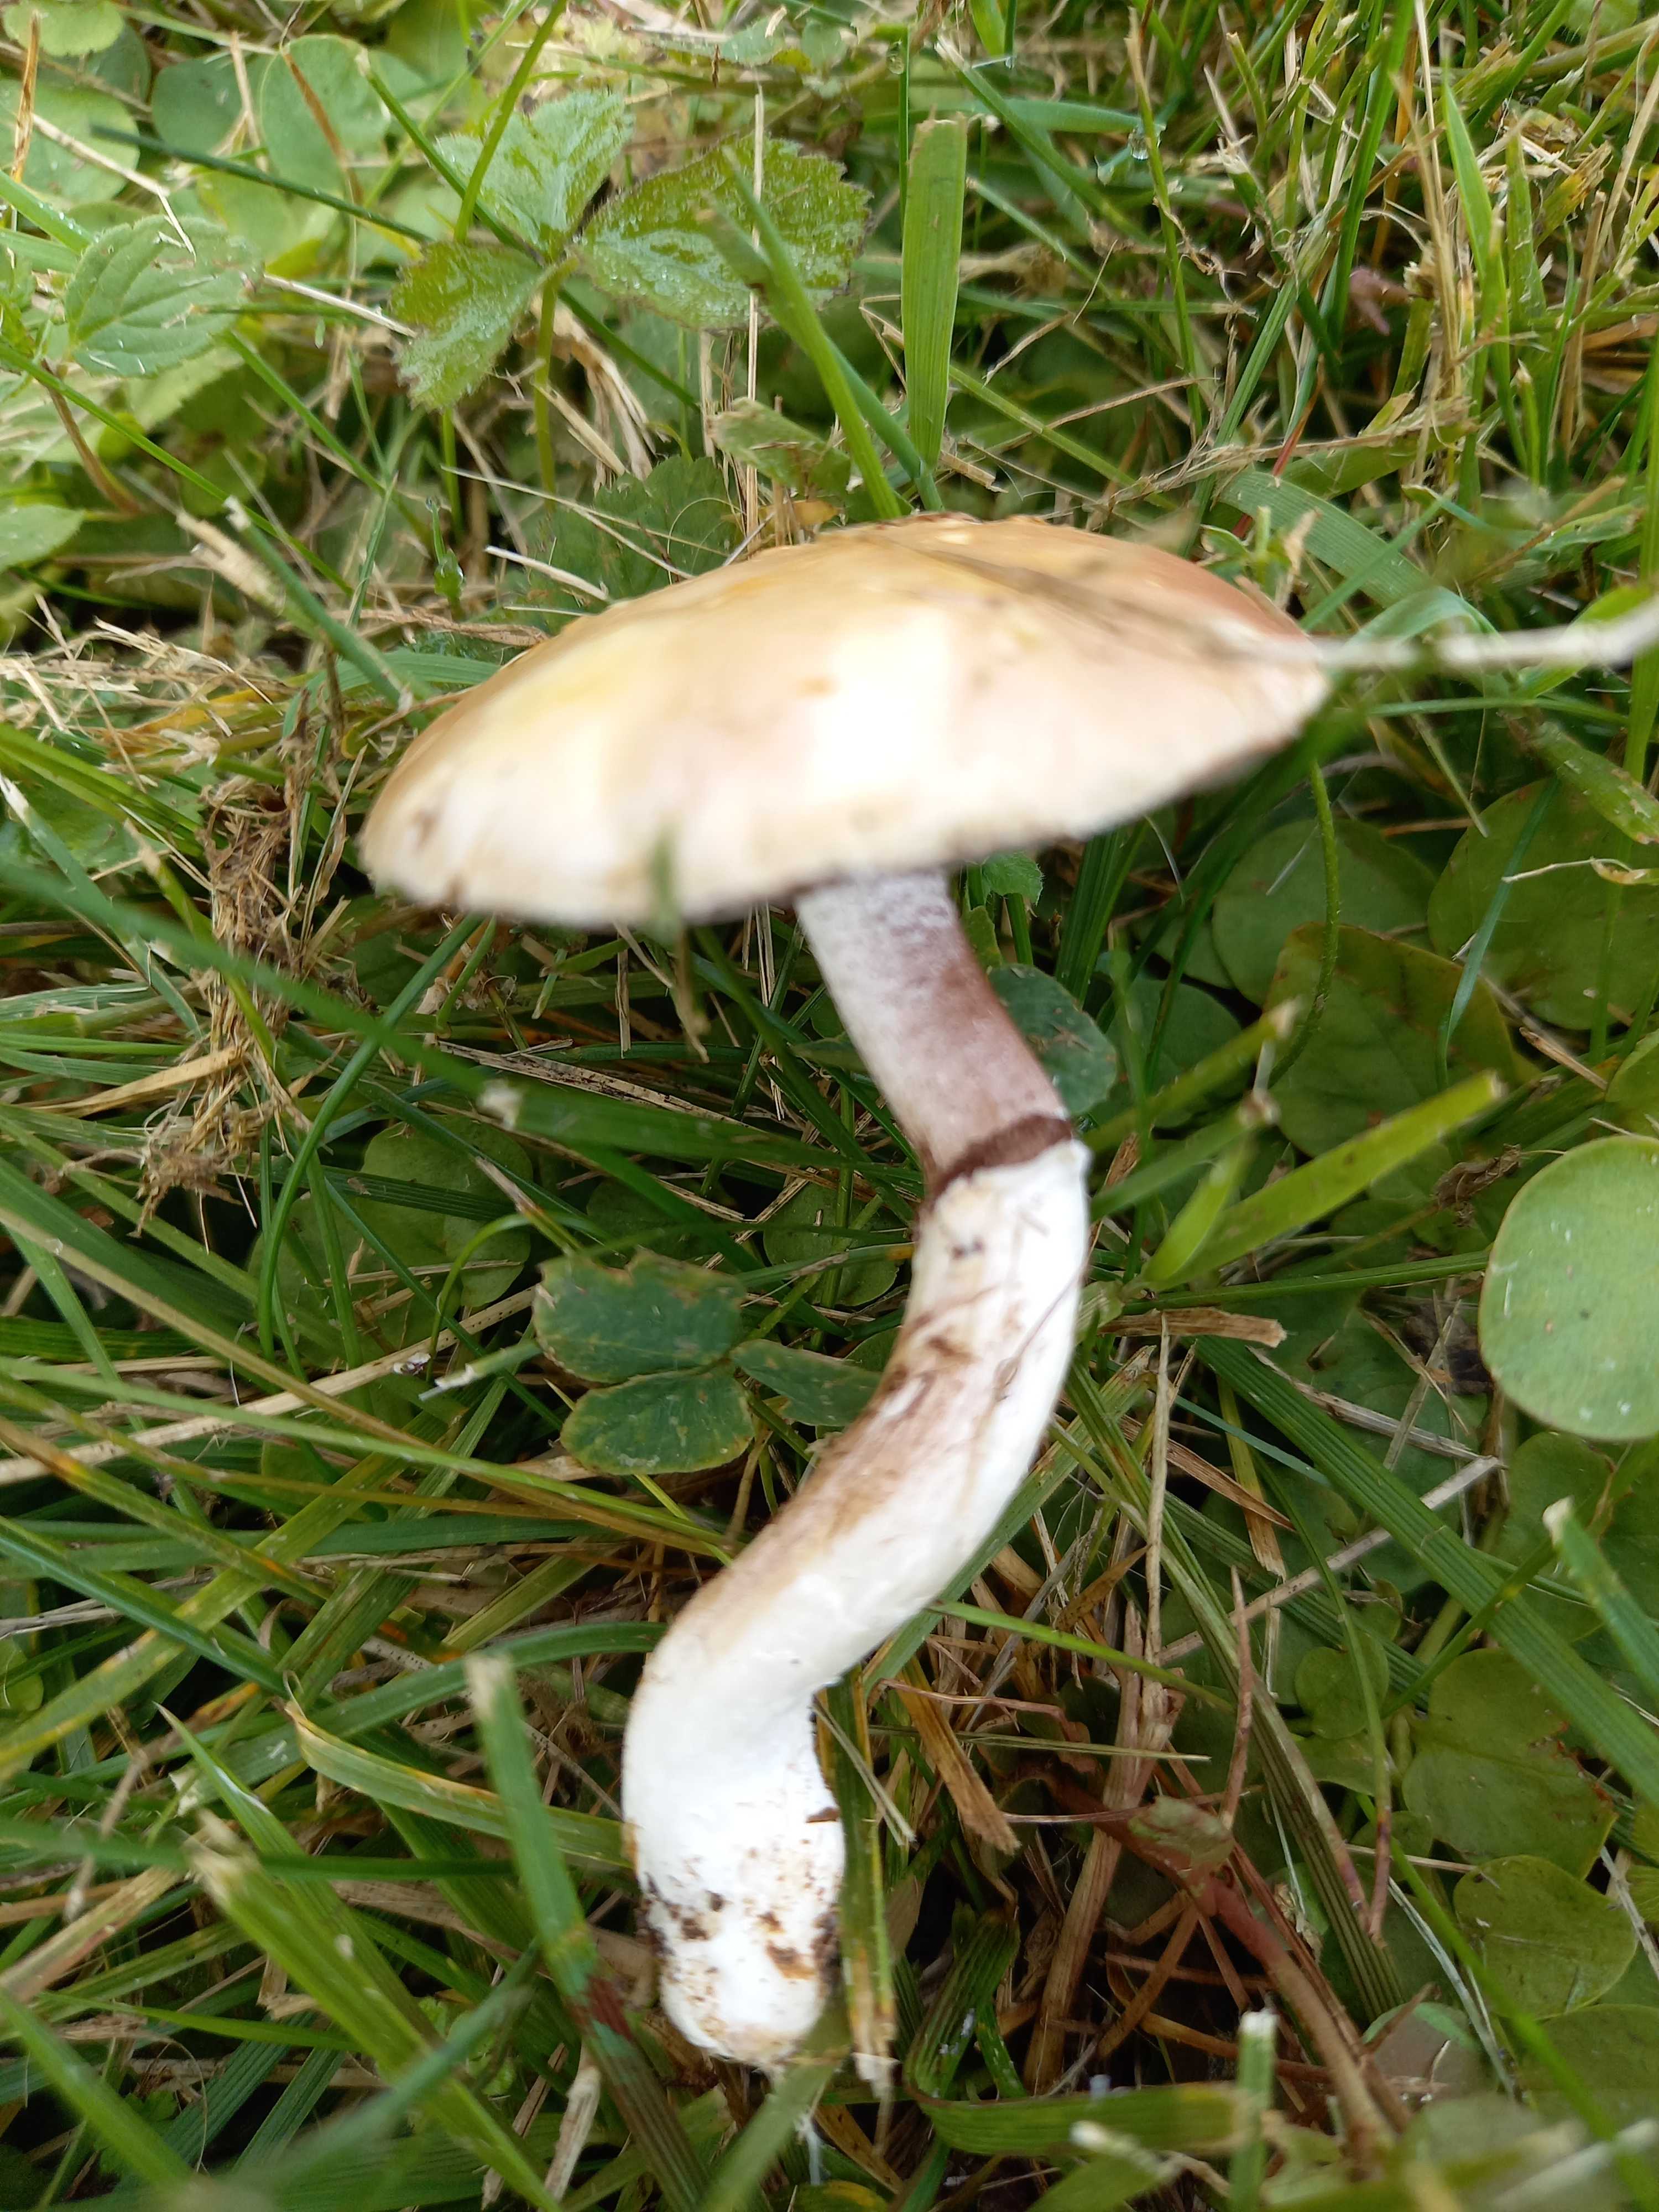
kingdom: Fungi
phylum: Basidiomycota
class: Agaricomycetes
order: Agaricales
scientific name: Agaricales
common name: champignonordenen
